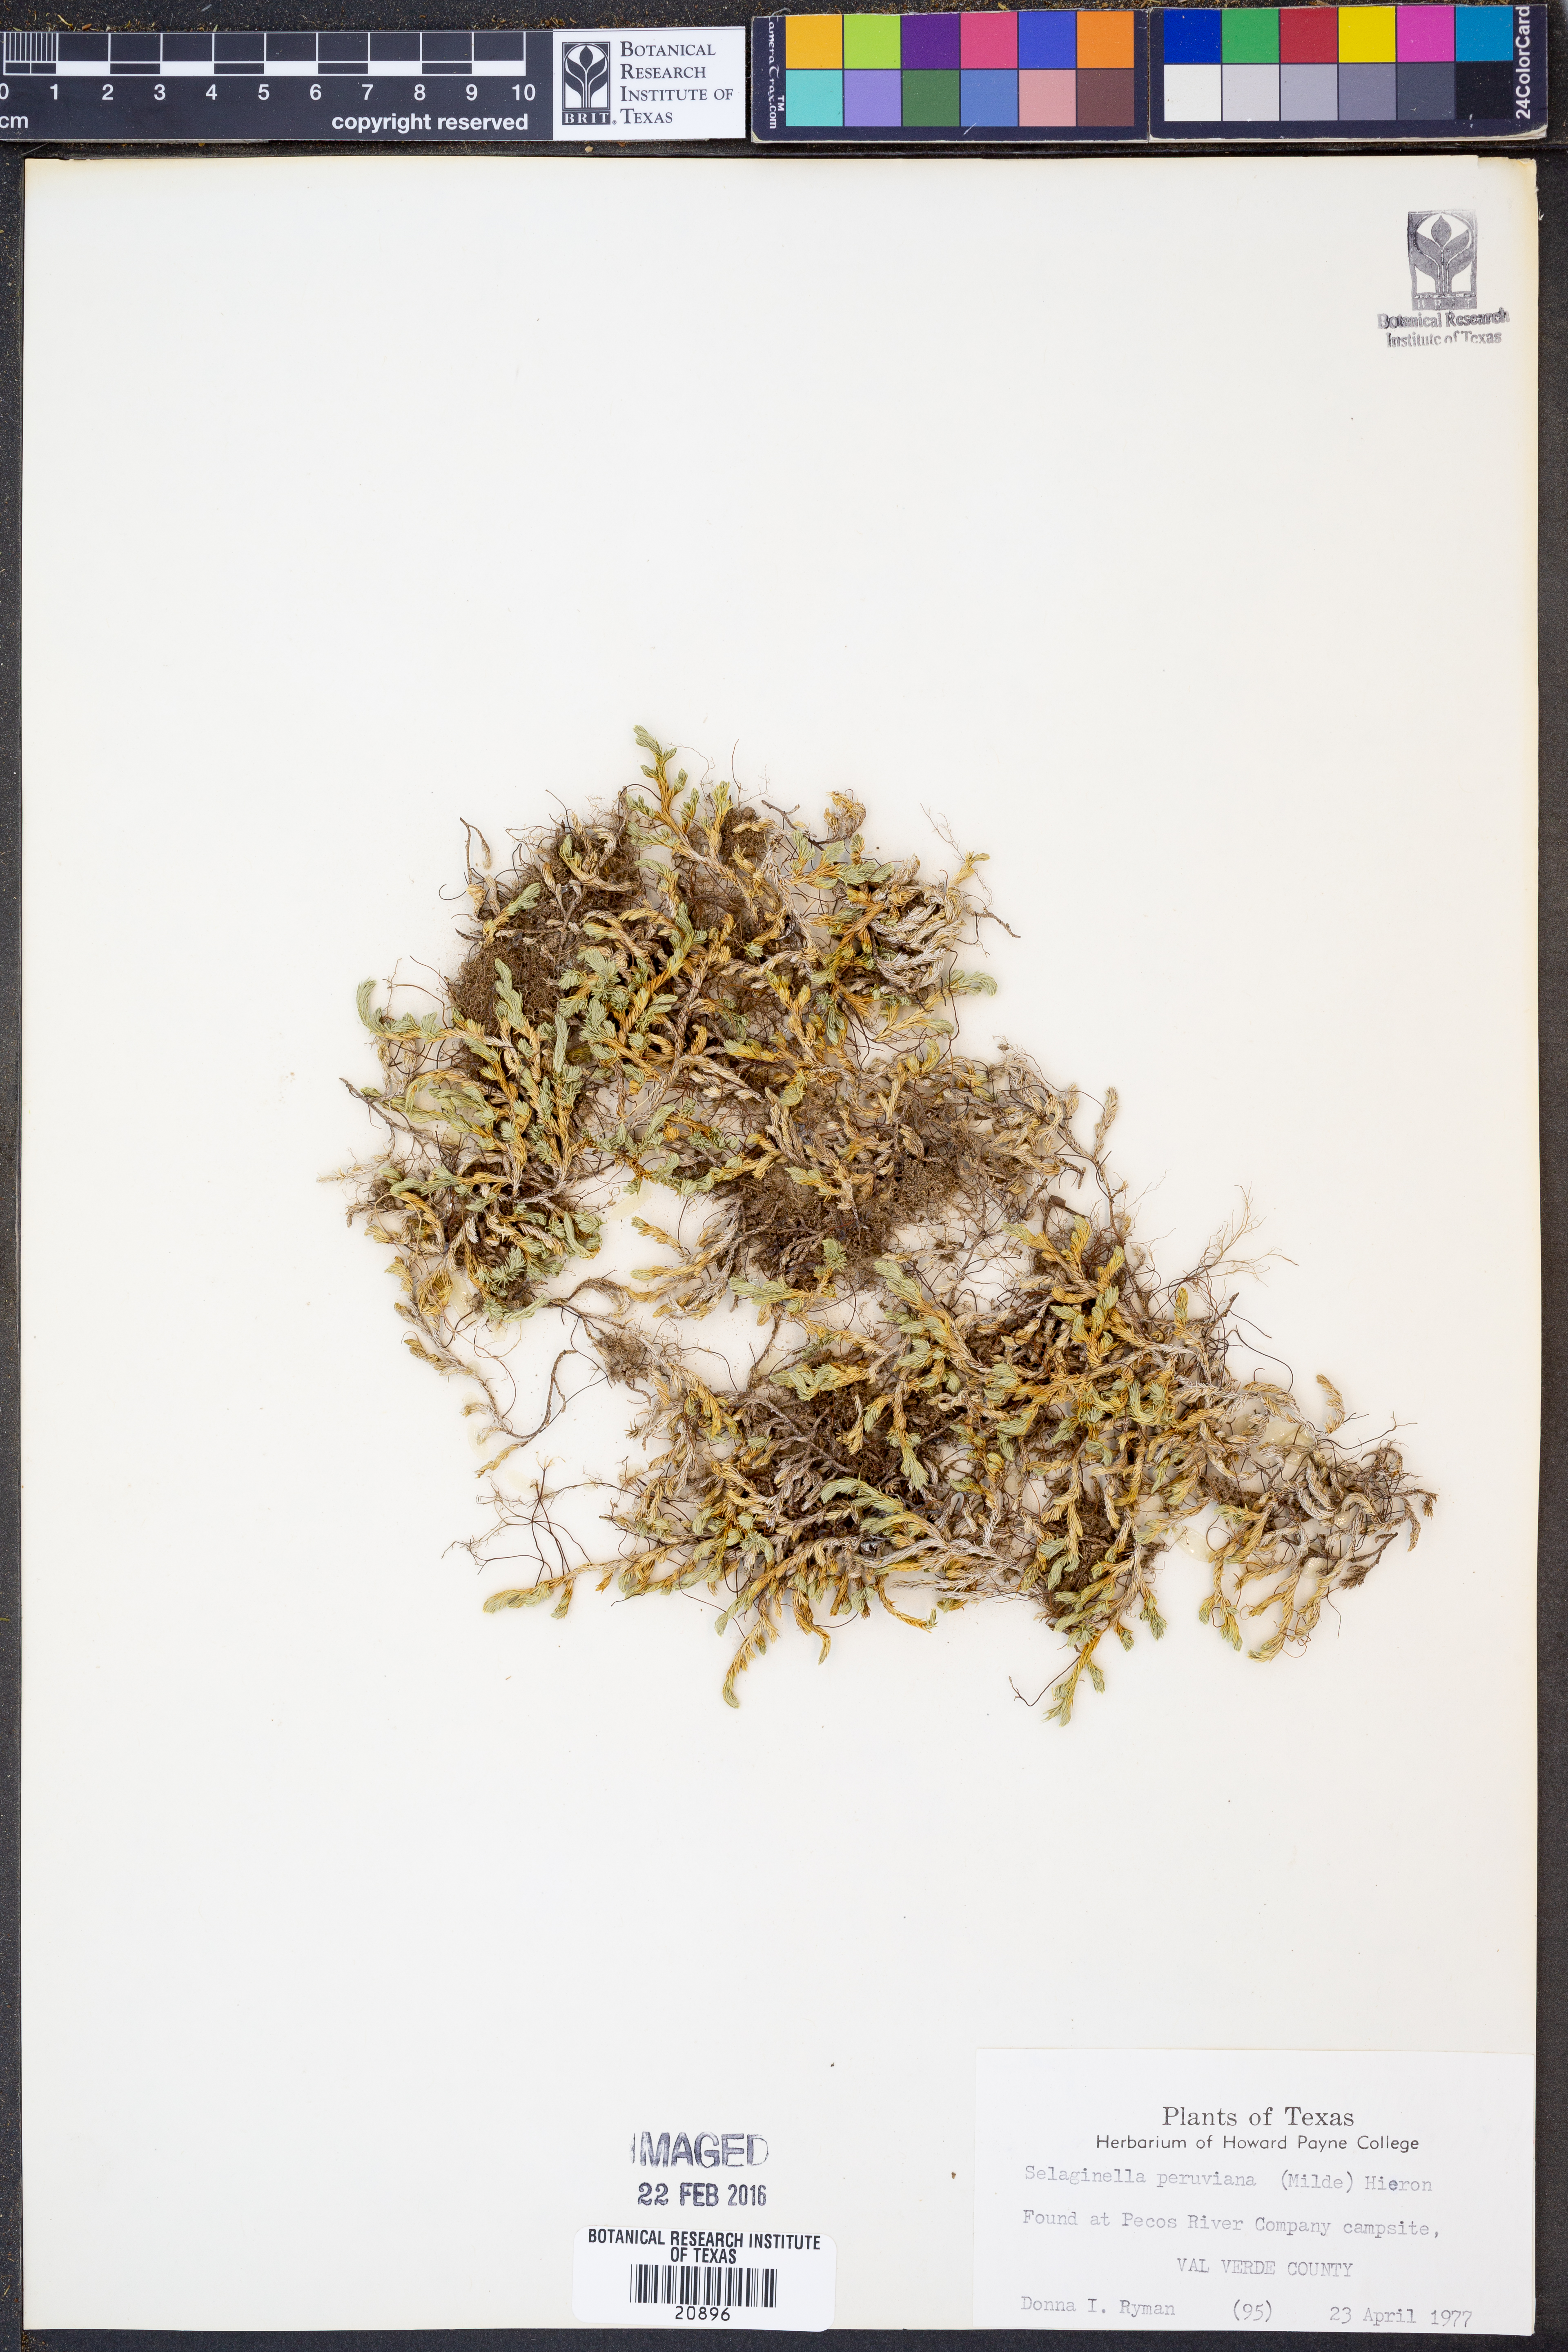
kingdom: Plantae
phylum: Tracheophyta
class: Lycopodiopsida
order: Selaginellales
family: Selaginellaceae
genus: Selaginella
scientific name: Selaginella peruviana
